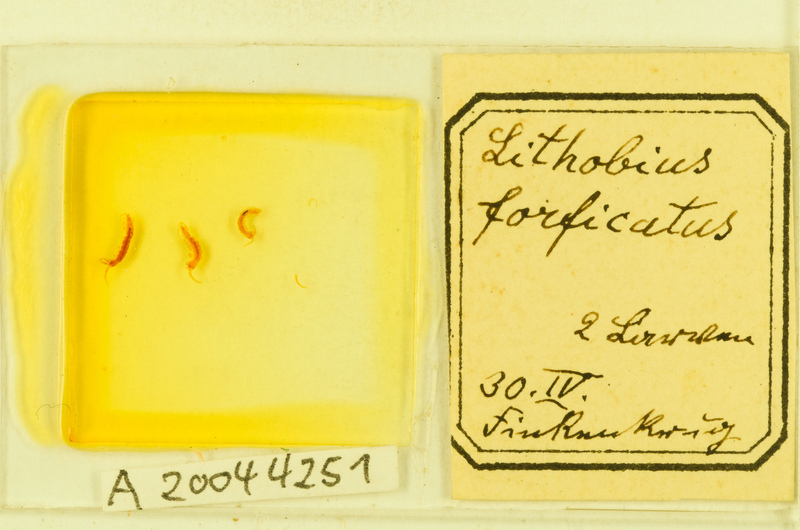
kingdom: Animalia
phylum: Arthropoda
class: Chilopoda
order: Lithobiomorpha
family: Lithobiidae
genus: Lithobius
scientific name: Lithobius forficatus
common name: Centipede
